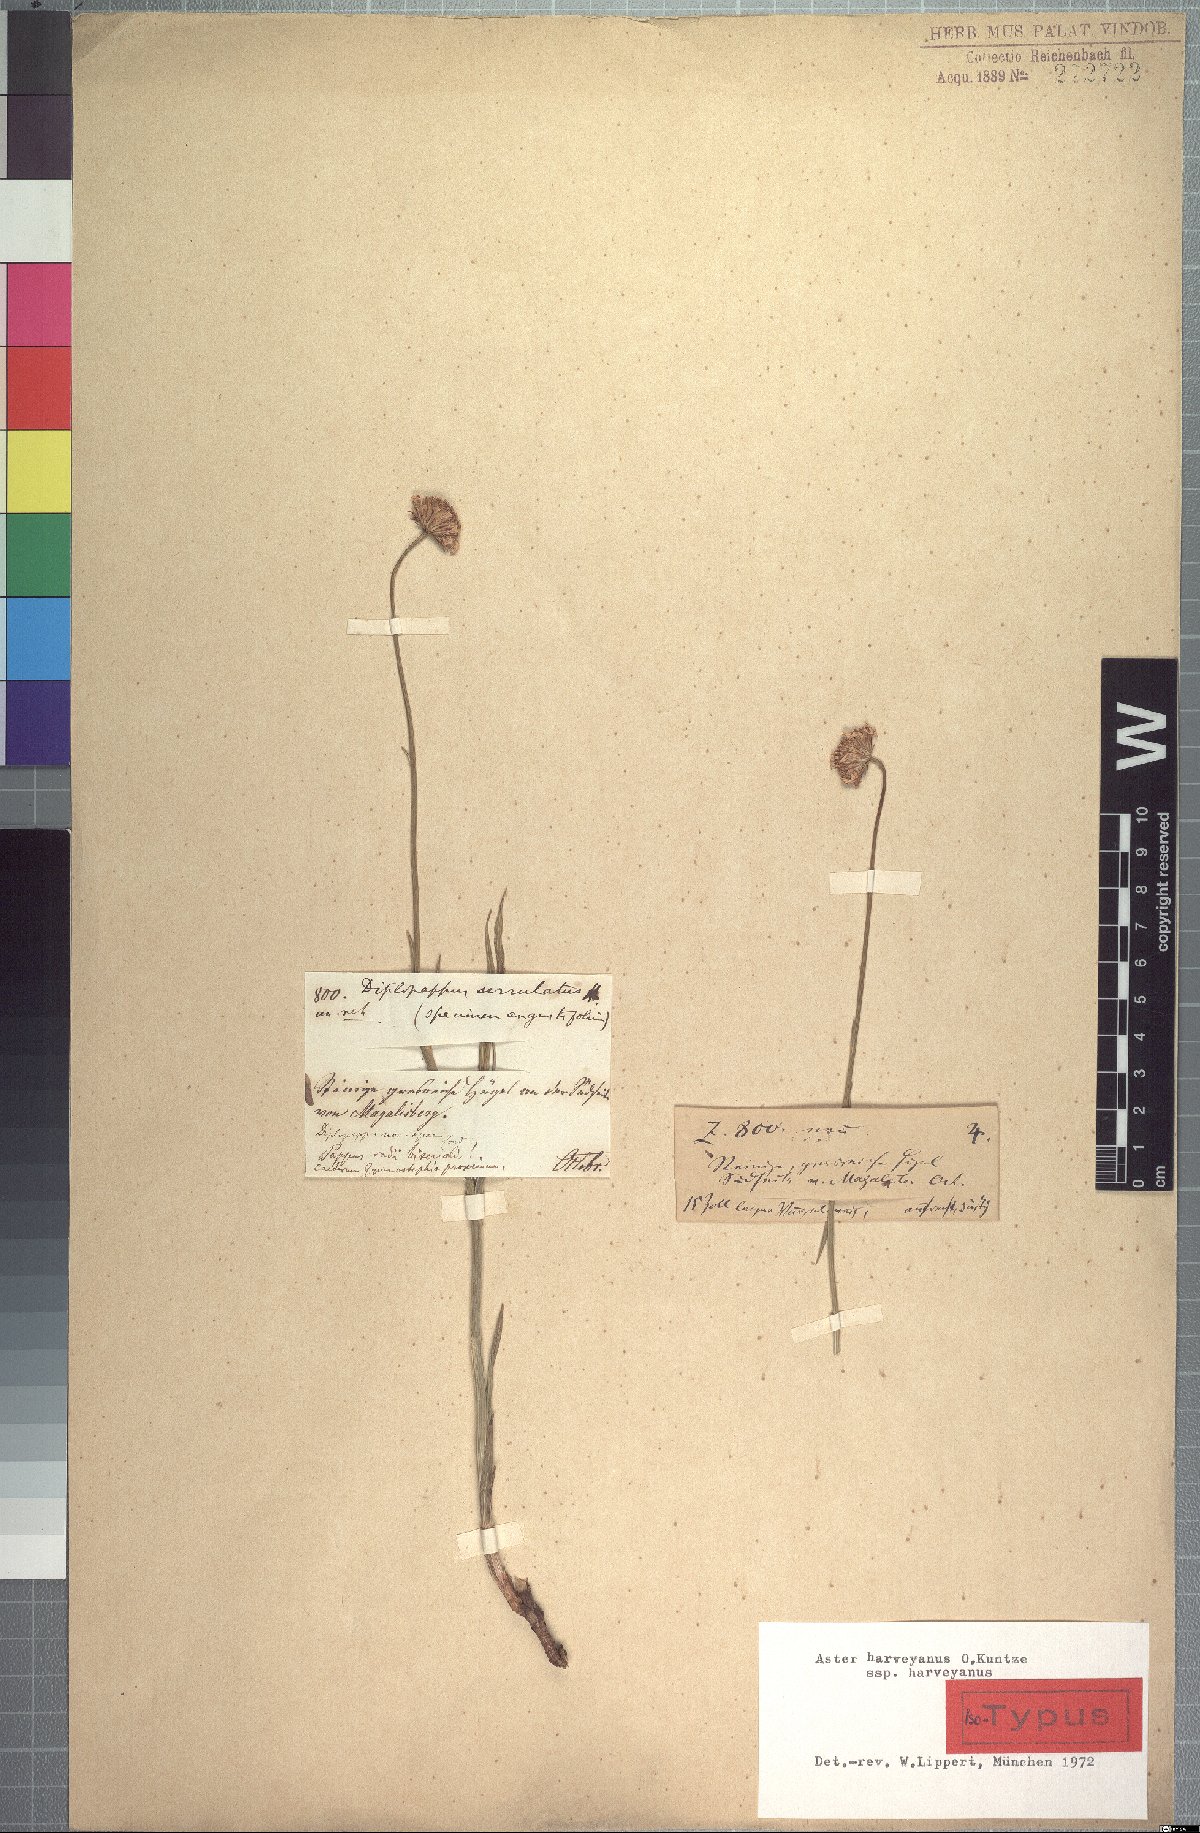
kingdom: Plantae
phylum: Tracheophyta
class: Magnoliopsida
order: Asterales
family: Asteraceae
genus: Afroaster
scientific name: Afroaster serrulatus
